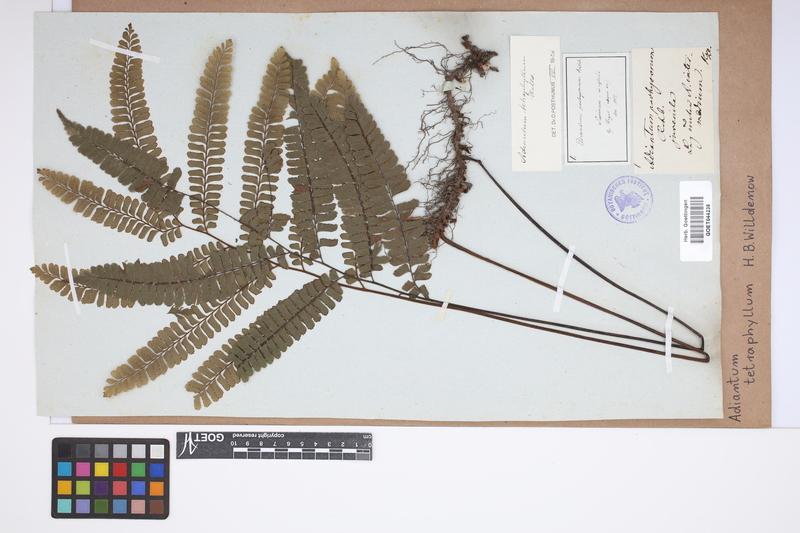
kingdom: Plantae
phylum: Tracheophyta
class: Polypodiopsida
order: Polypodiales
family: Pteridaceae
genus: Adiantum
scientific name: Adiantum tetraphyllum
